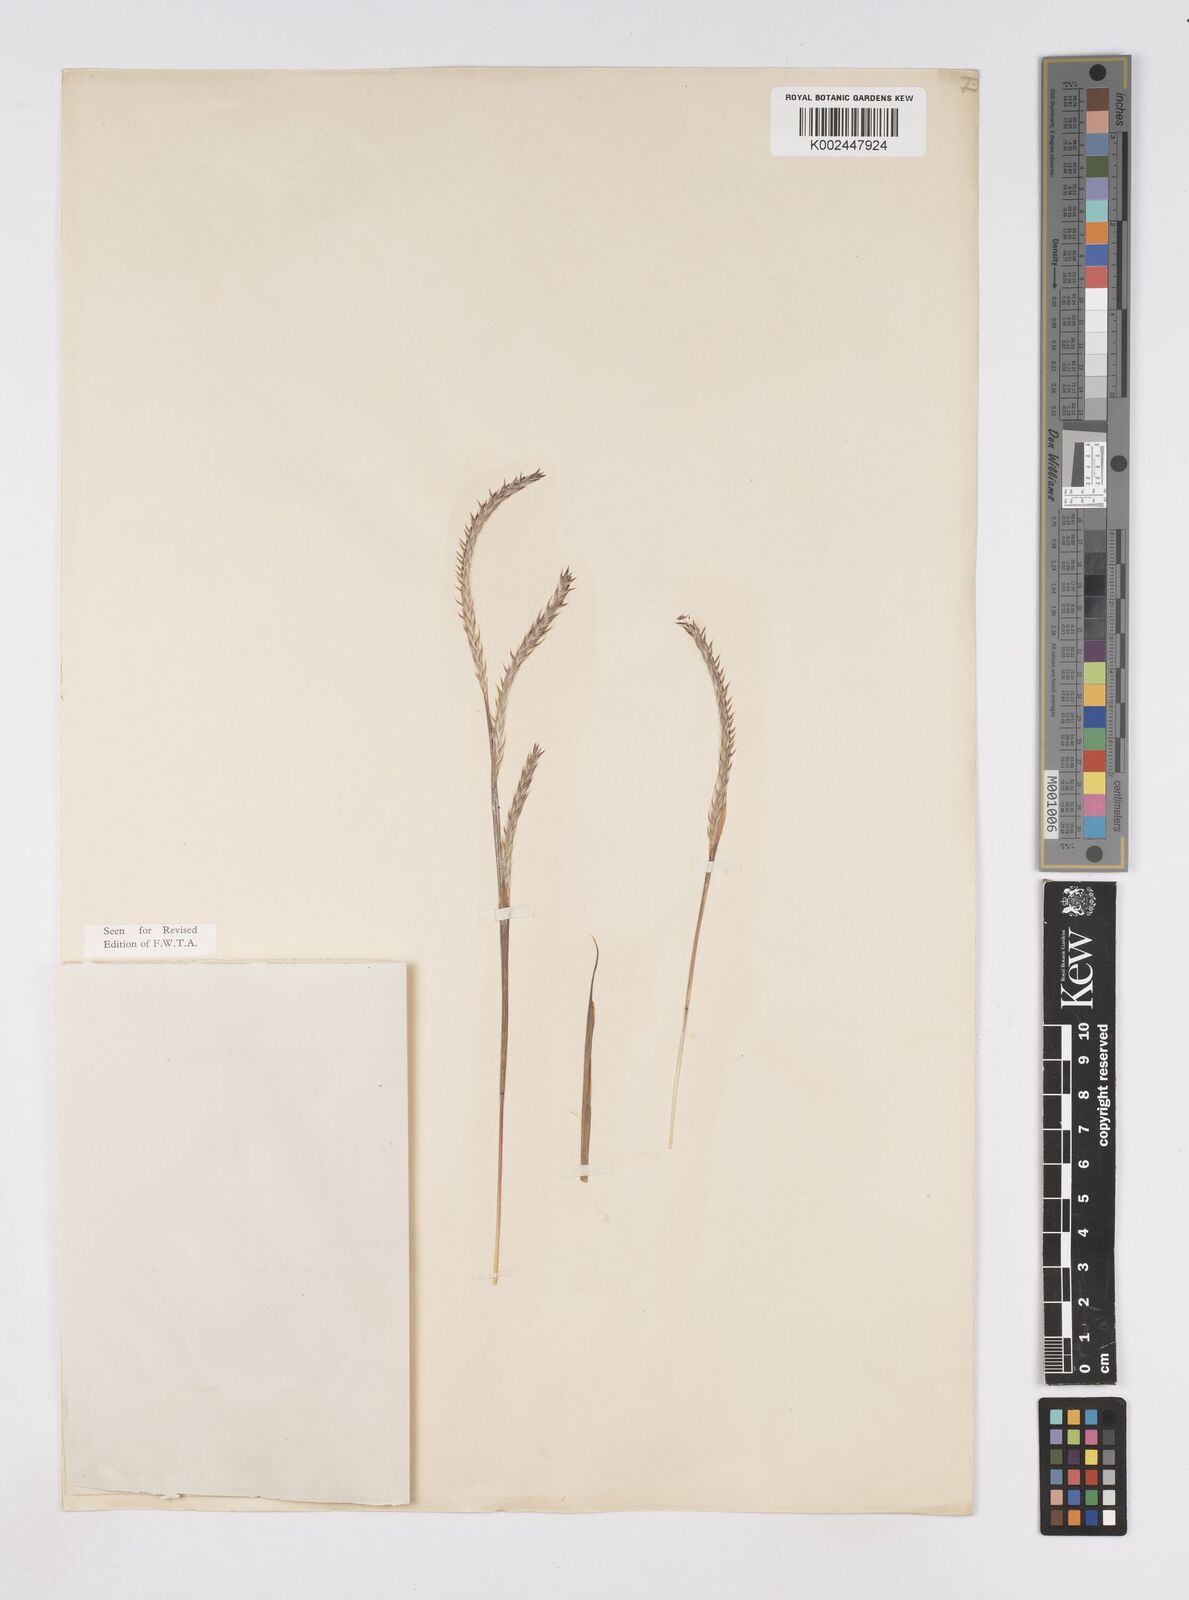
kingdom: Plantae
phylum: Tracheophyta
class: Liliopsida
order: Poales
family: Poaceae
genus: Elionurus
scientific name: Elionurus
